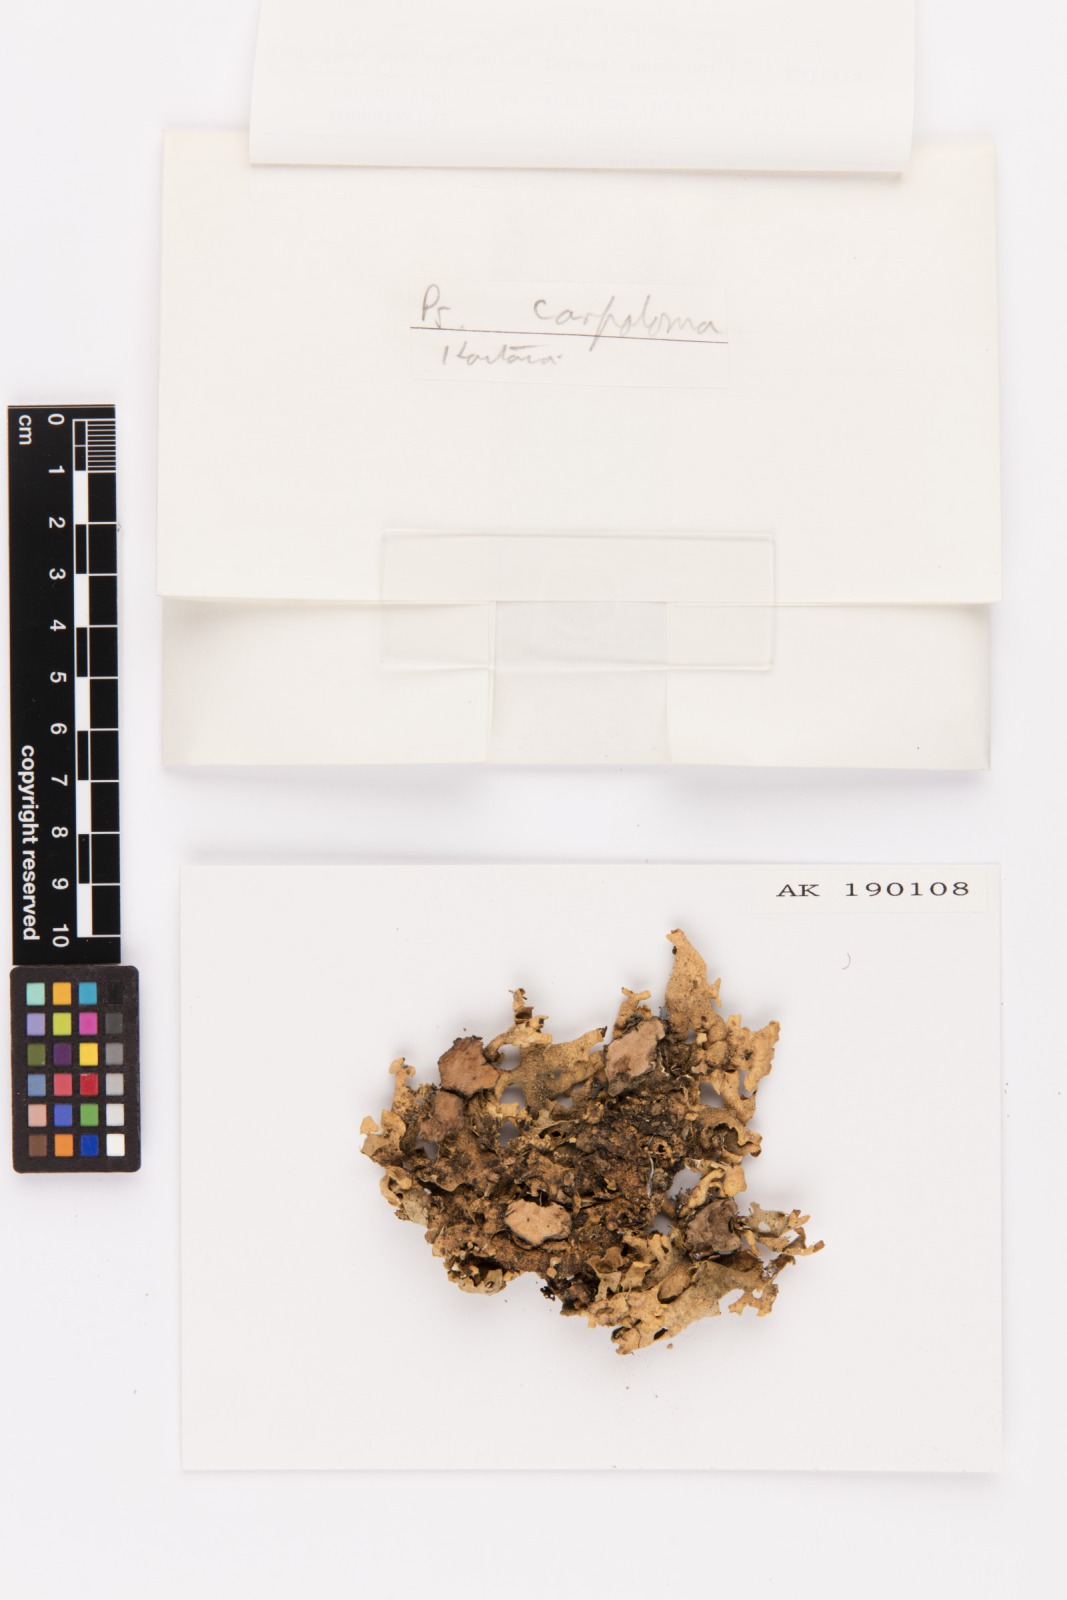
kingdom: Fungi
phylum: Ascomycota
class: Lecanoromycetes
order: Peltigerales
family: Lobariaceae
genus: Pseudocyphellaria
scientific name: Pseudocyphellaria carpoloma
